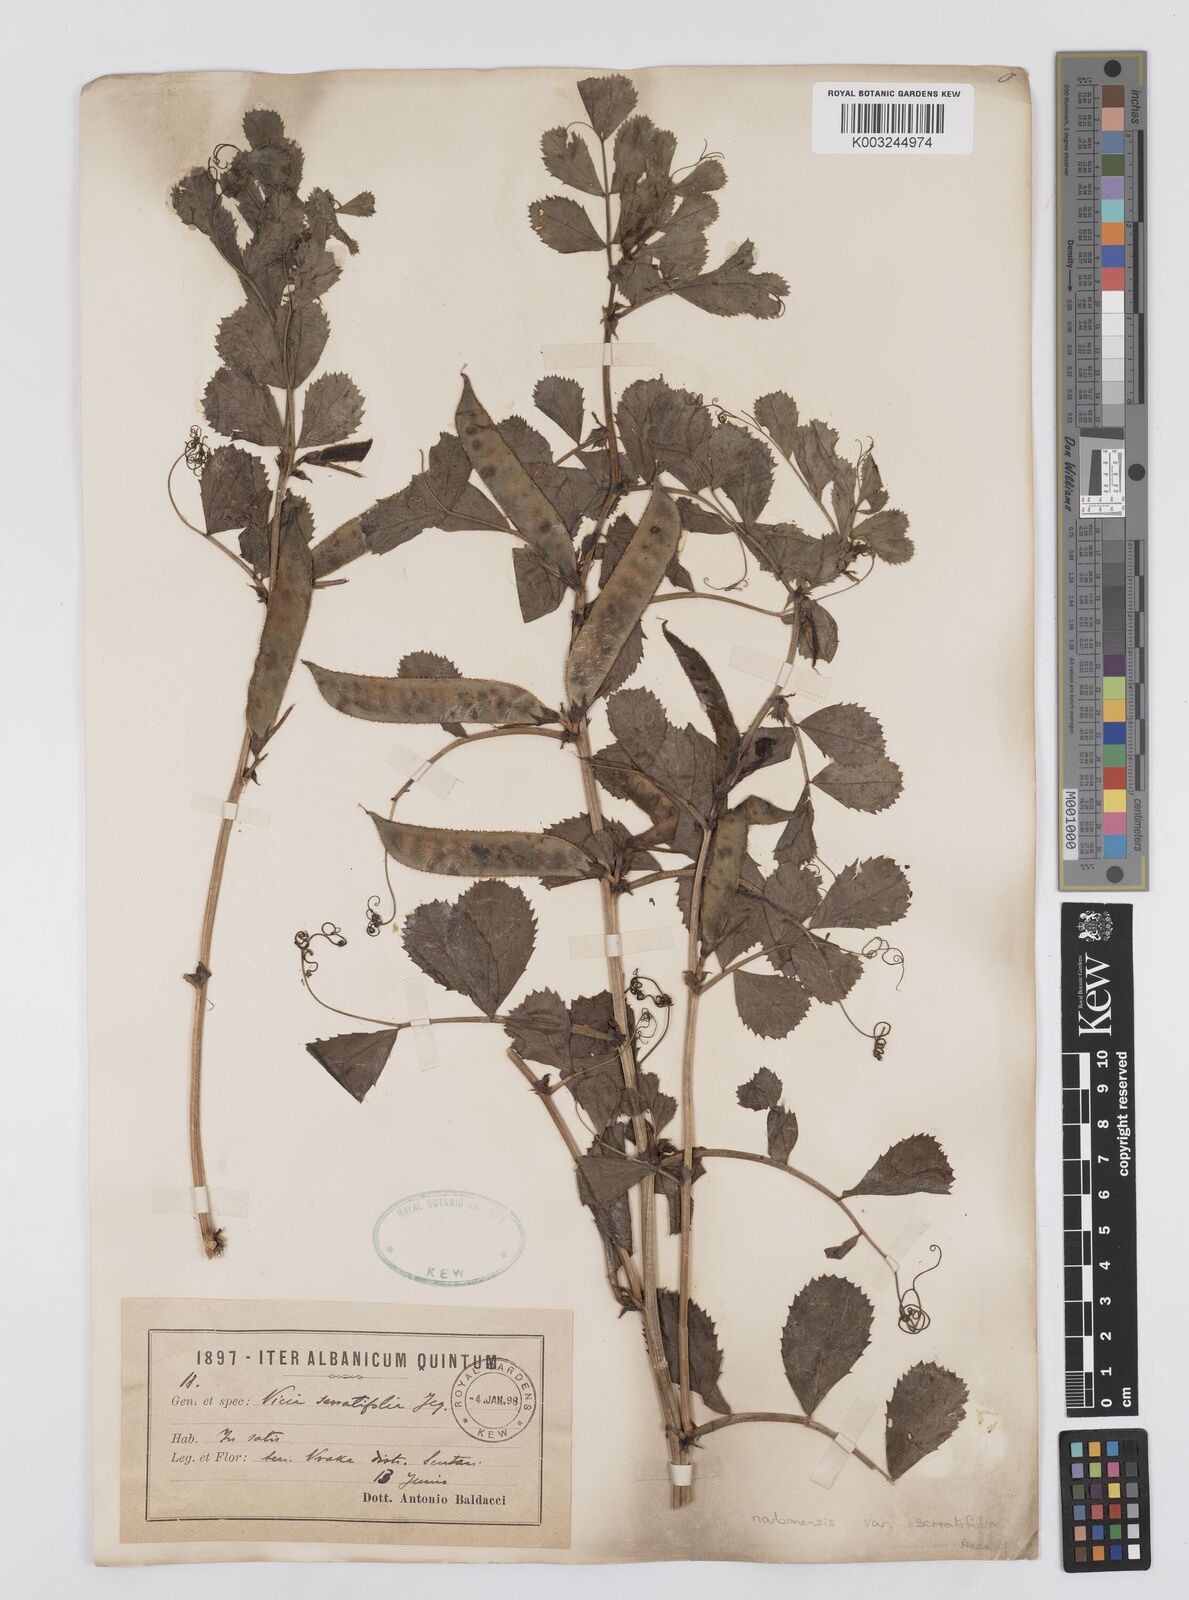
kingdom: Plantae
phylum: Tracheophyta
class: Magnoliopsida
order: Fabales
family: Fabaceae
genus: Vicia
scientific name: Vicia serratifolia
